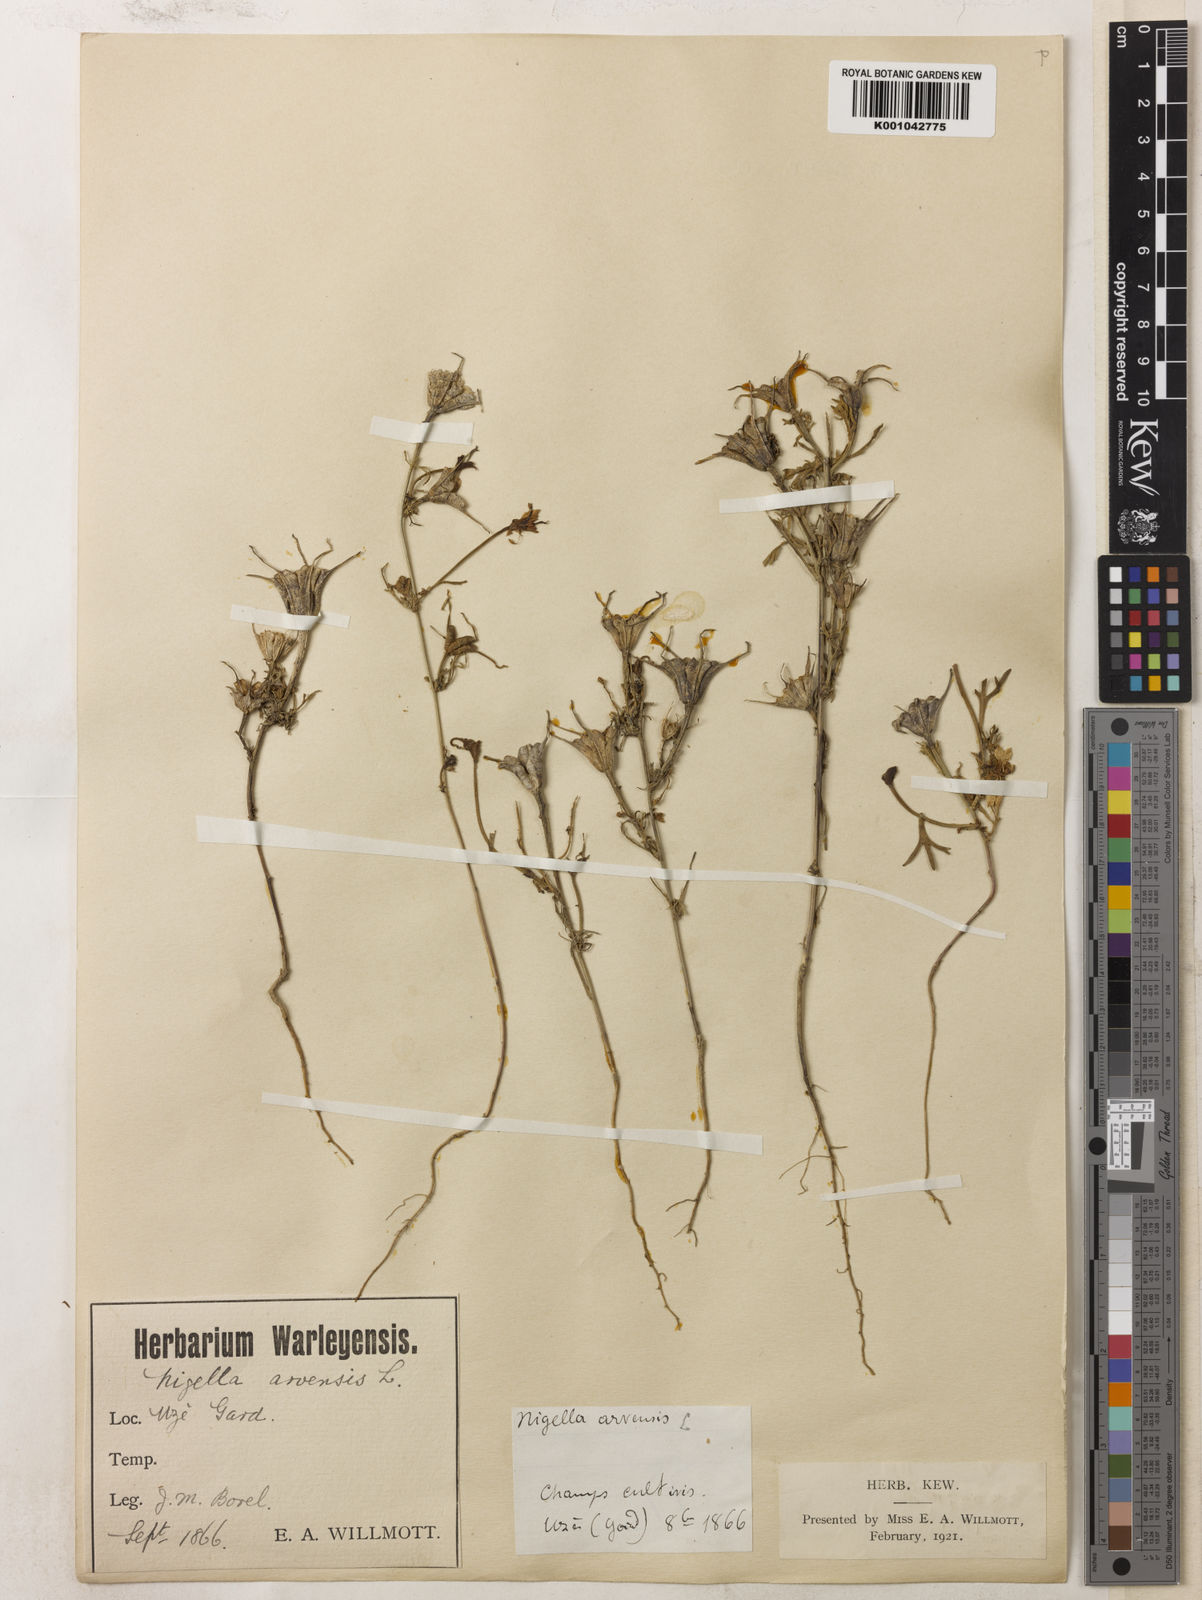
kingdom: Plantae
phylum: Tracheophyta
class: Magnoliopsida
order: Ranunculales
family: Ranunculaceae
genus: Nigella
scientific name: Nigella hispanica
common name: Fennel-flower
